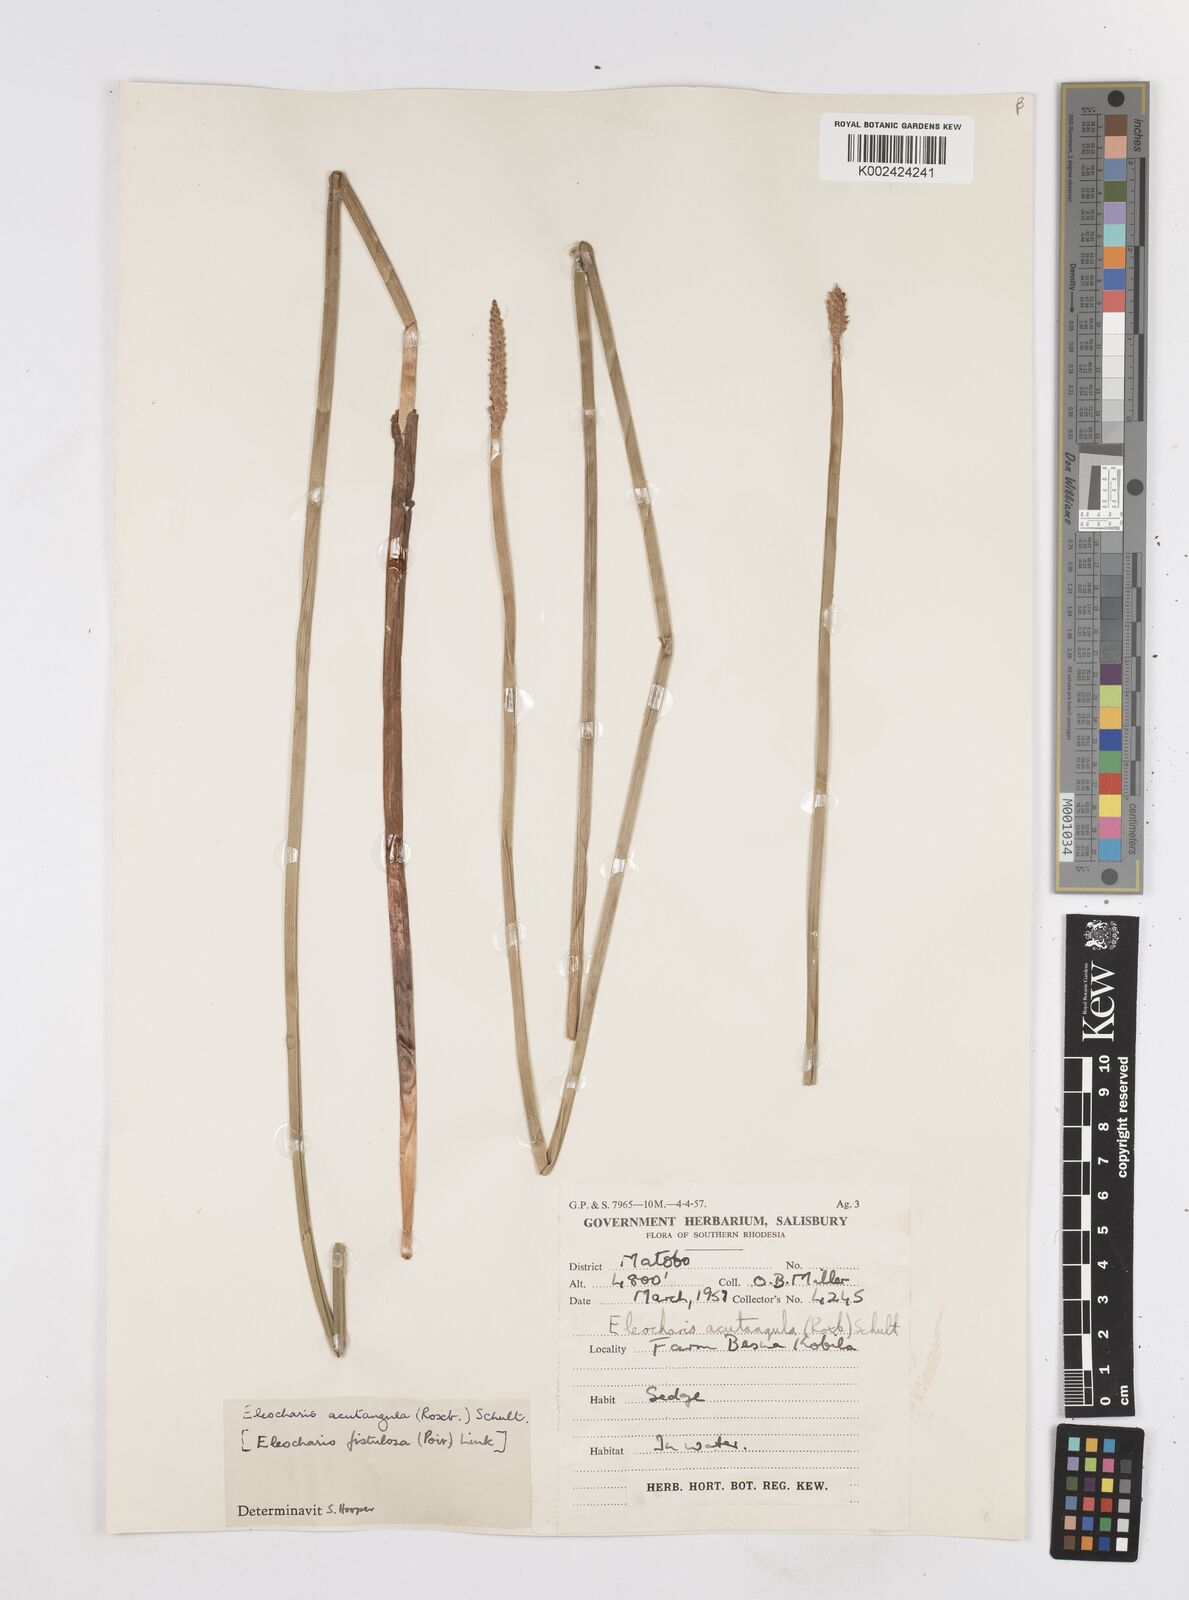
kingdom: Plantae
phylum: Tracheophyta
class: Liliopsida
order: Poales
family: Cyperaceae
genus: Eleocharis
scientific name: Eleocharis acutangula
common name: Acute spikerush
